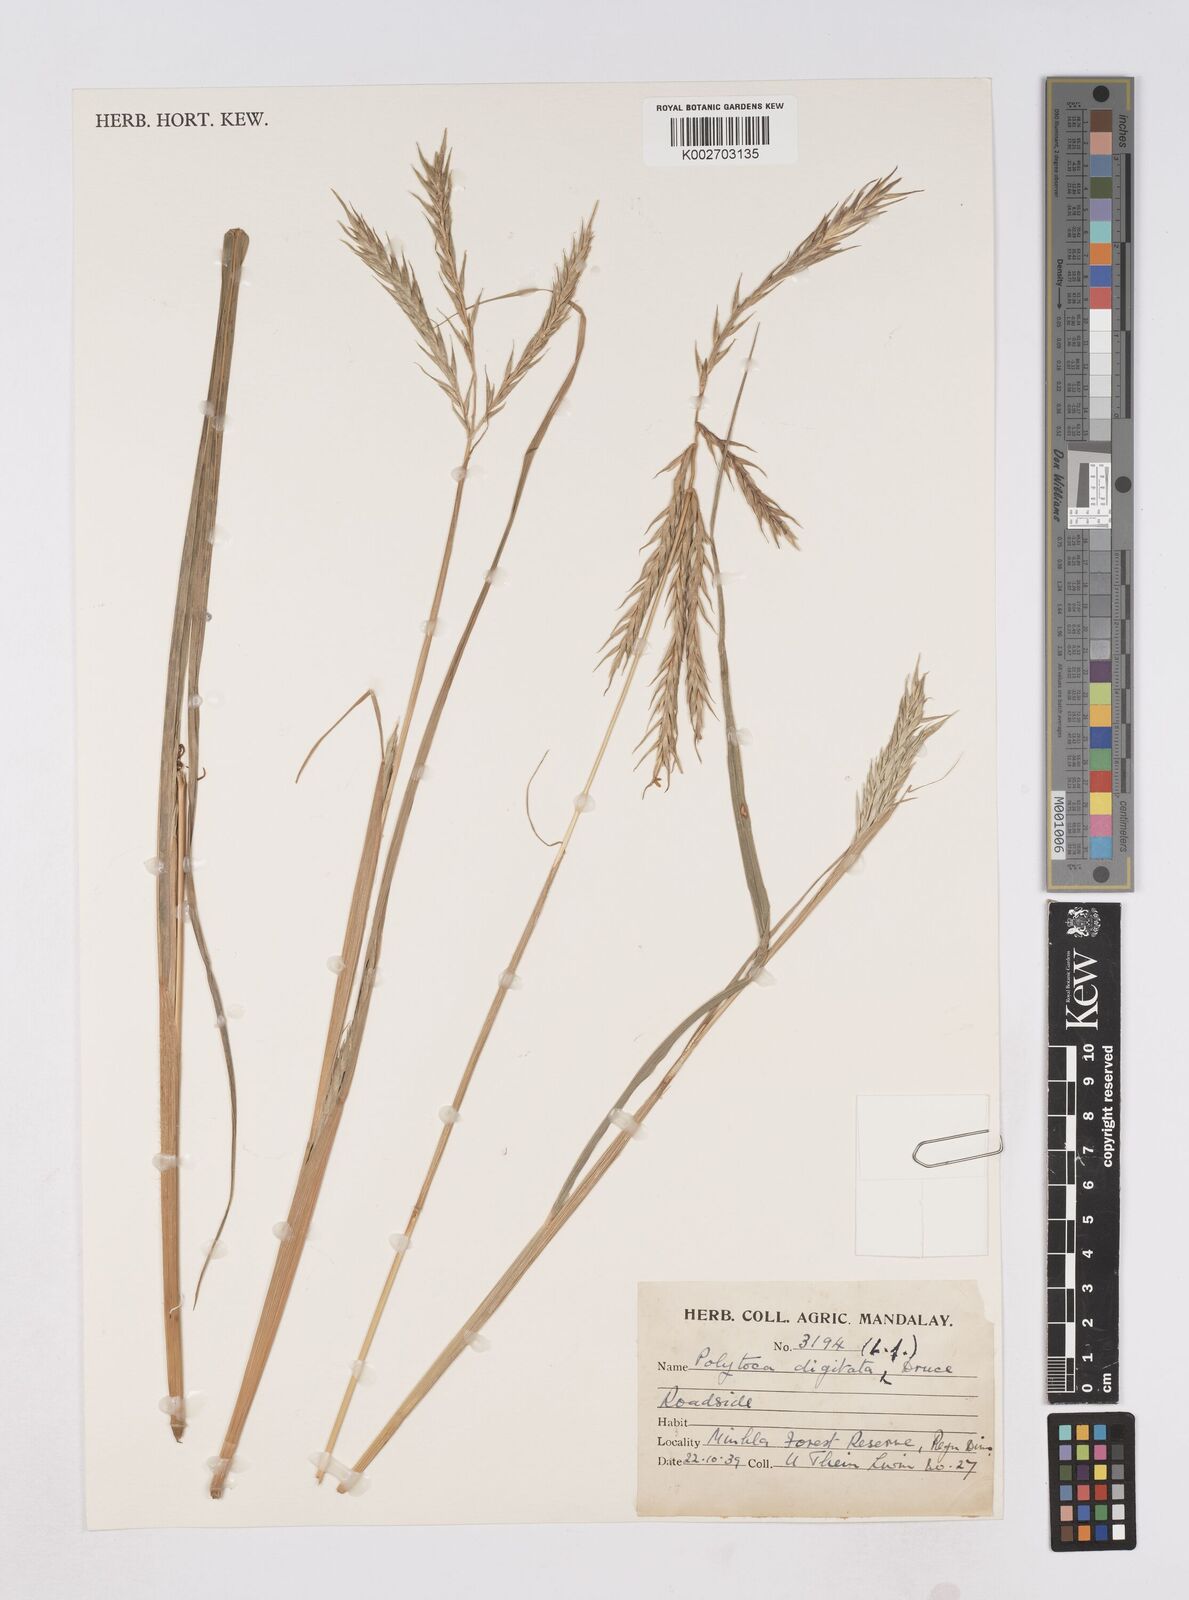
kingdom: Plantae
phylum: Tracheophyta
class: Liliopsida
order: Poales
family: Poaceae
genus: Polytoca
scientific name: Polytoca digitata
